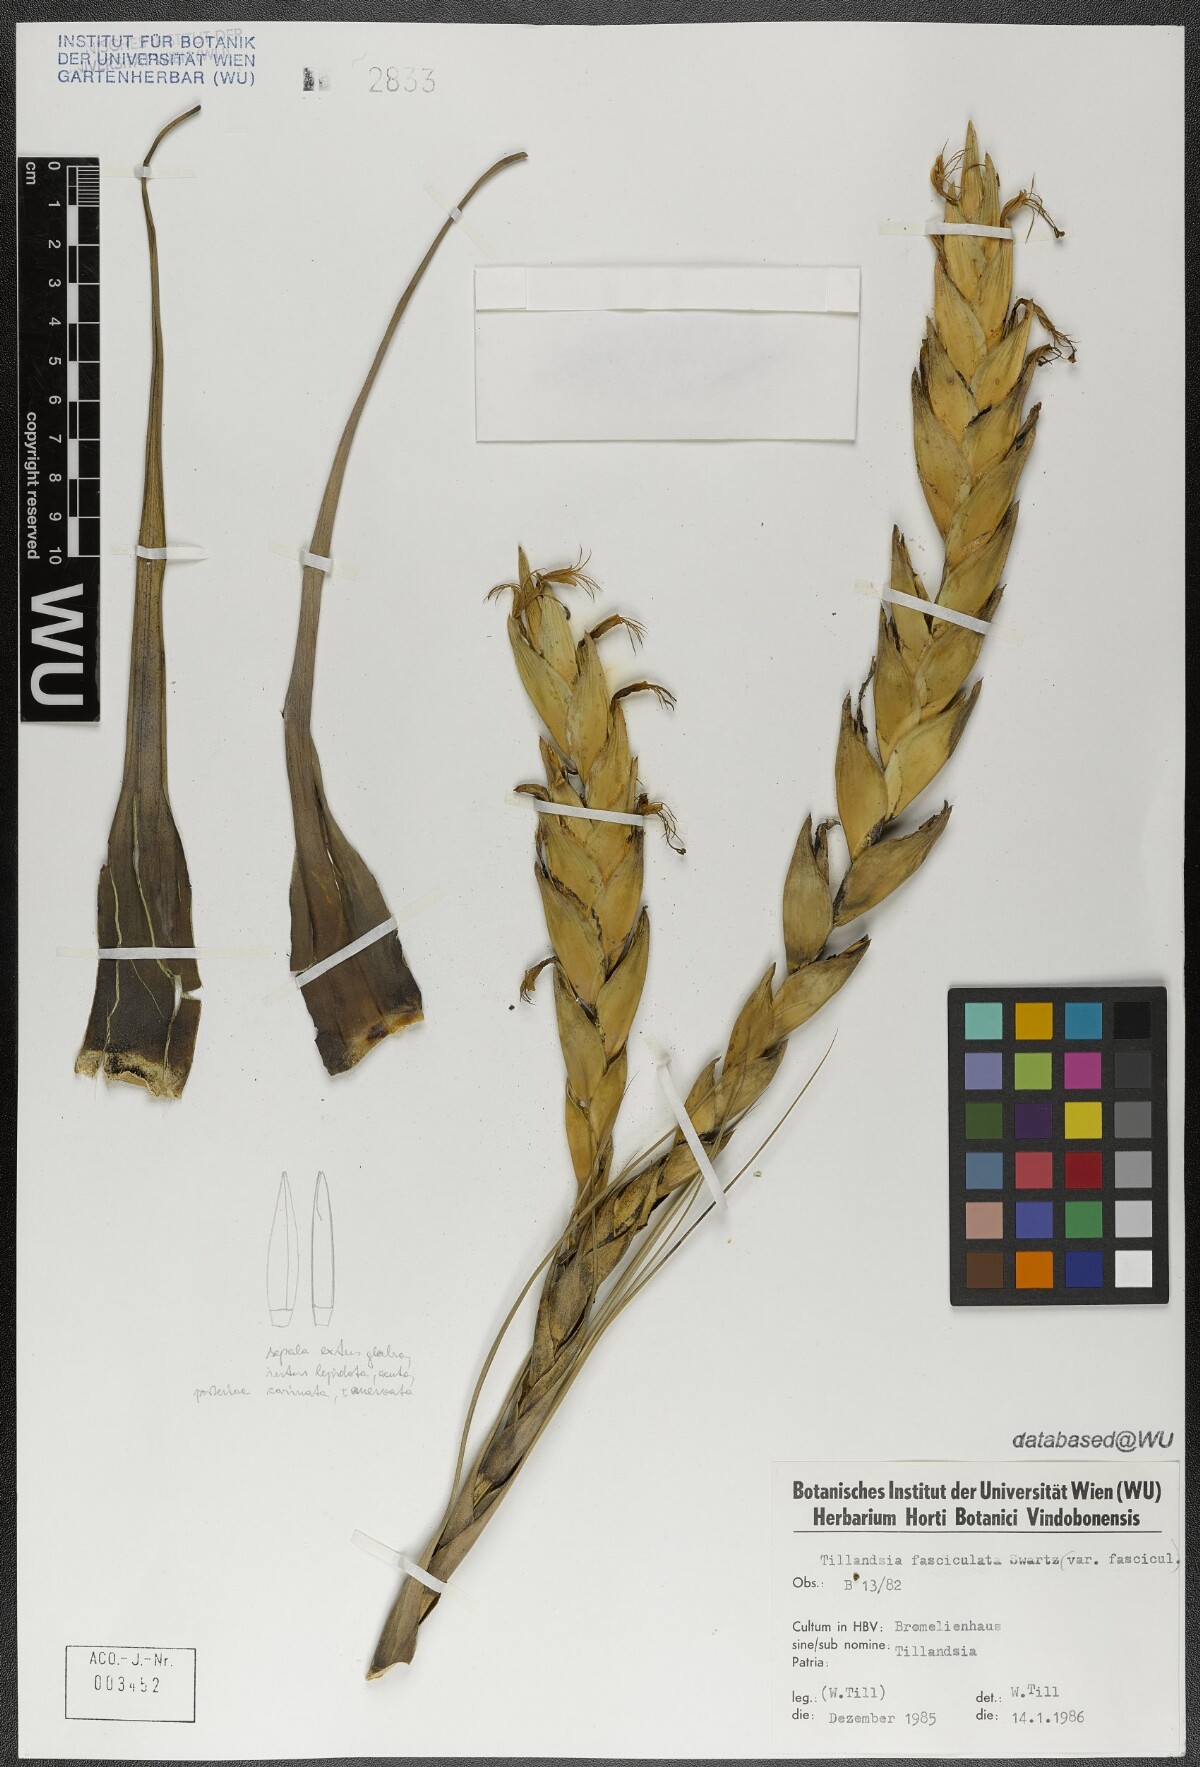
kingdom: Plantae
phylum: Tracheophyta
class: Liliopsida
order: Poales
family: Bromeliaceae
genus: Tillandsia
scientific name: Tillandsia fasciculata
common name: Giant airplant
